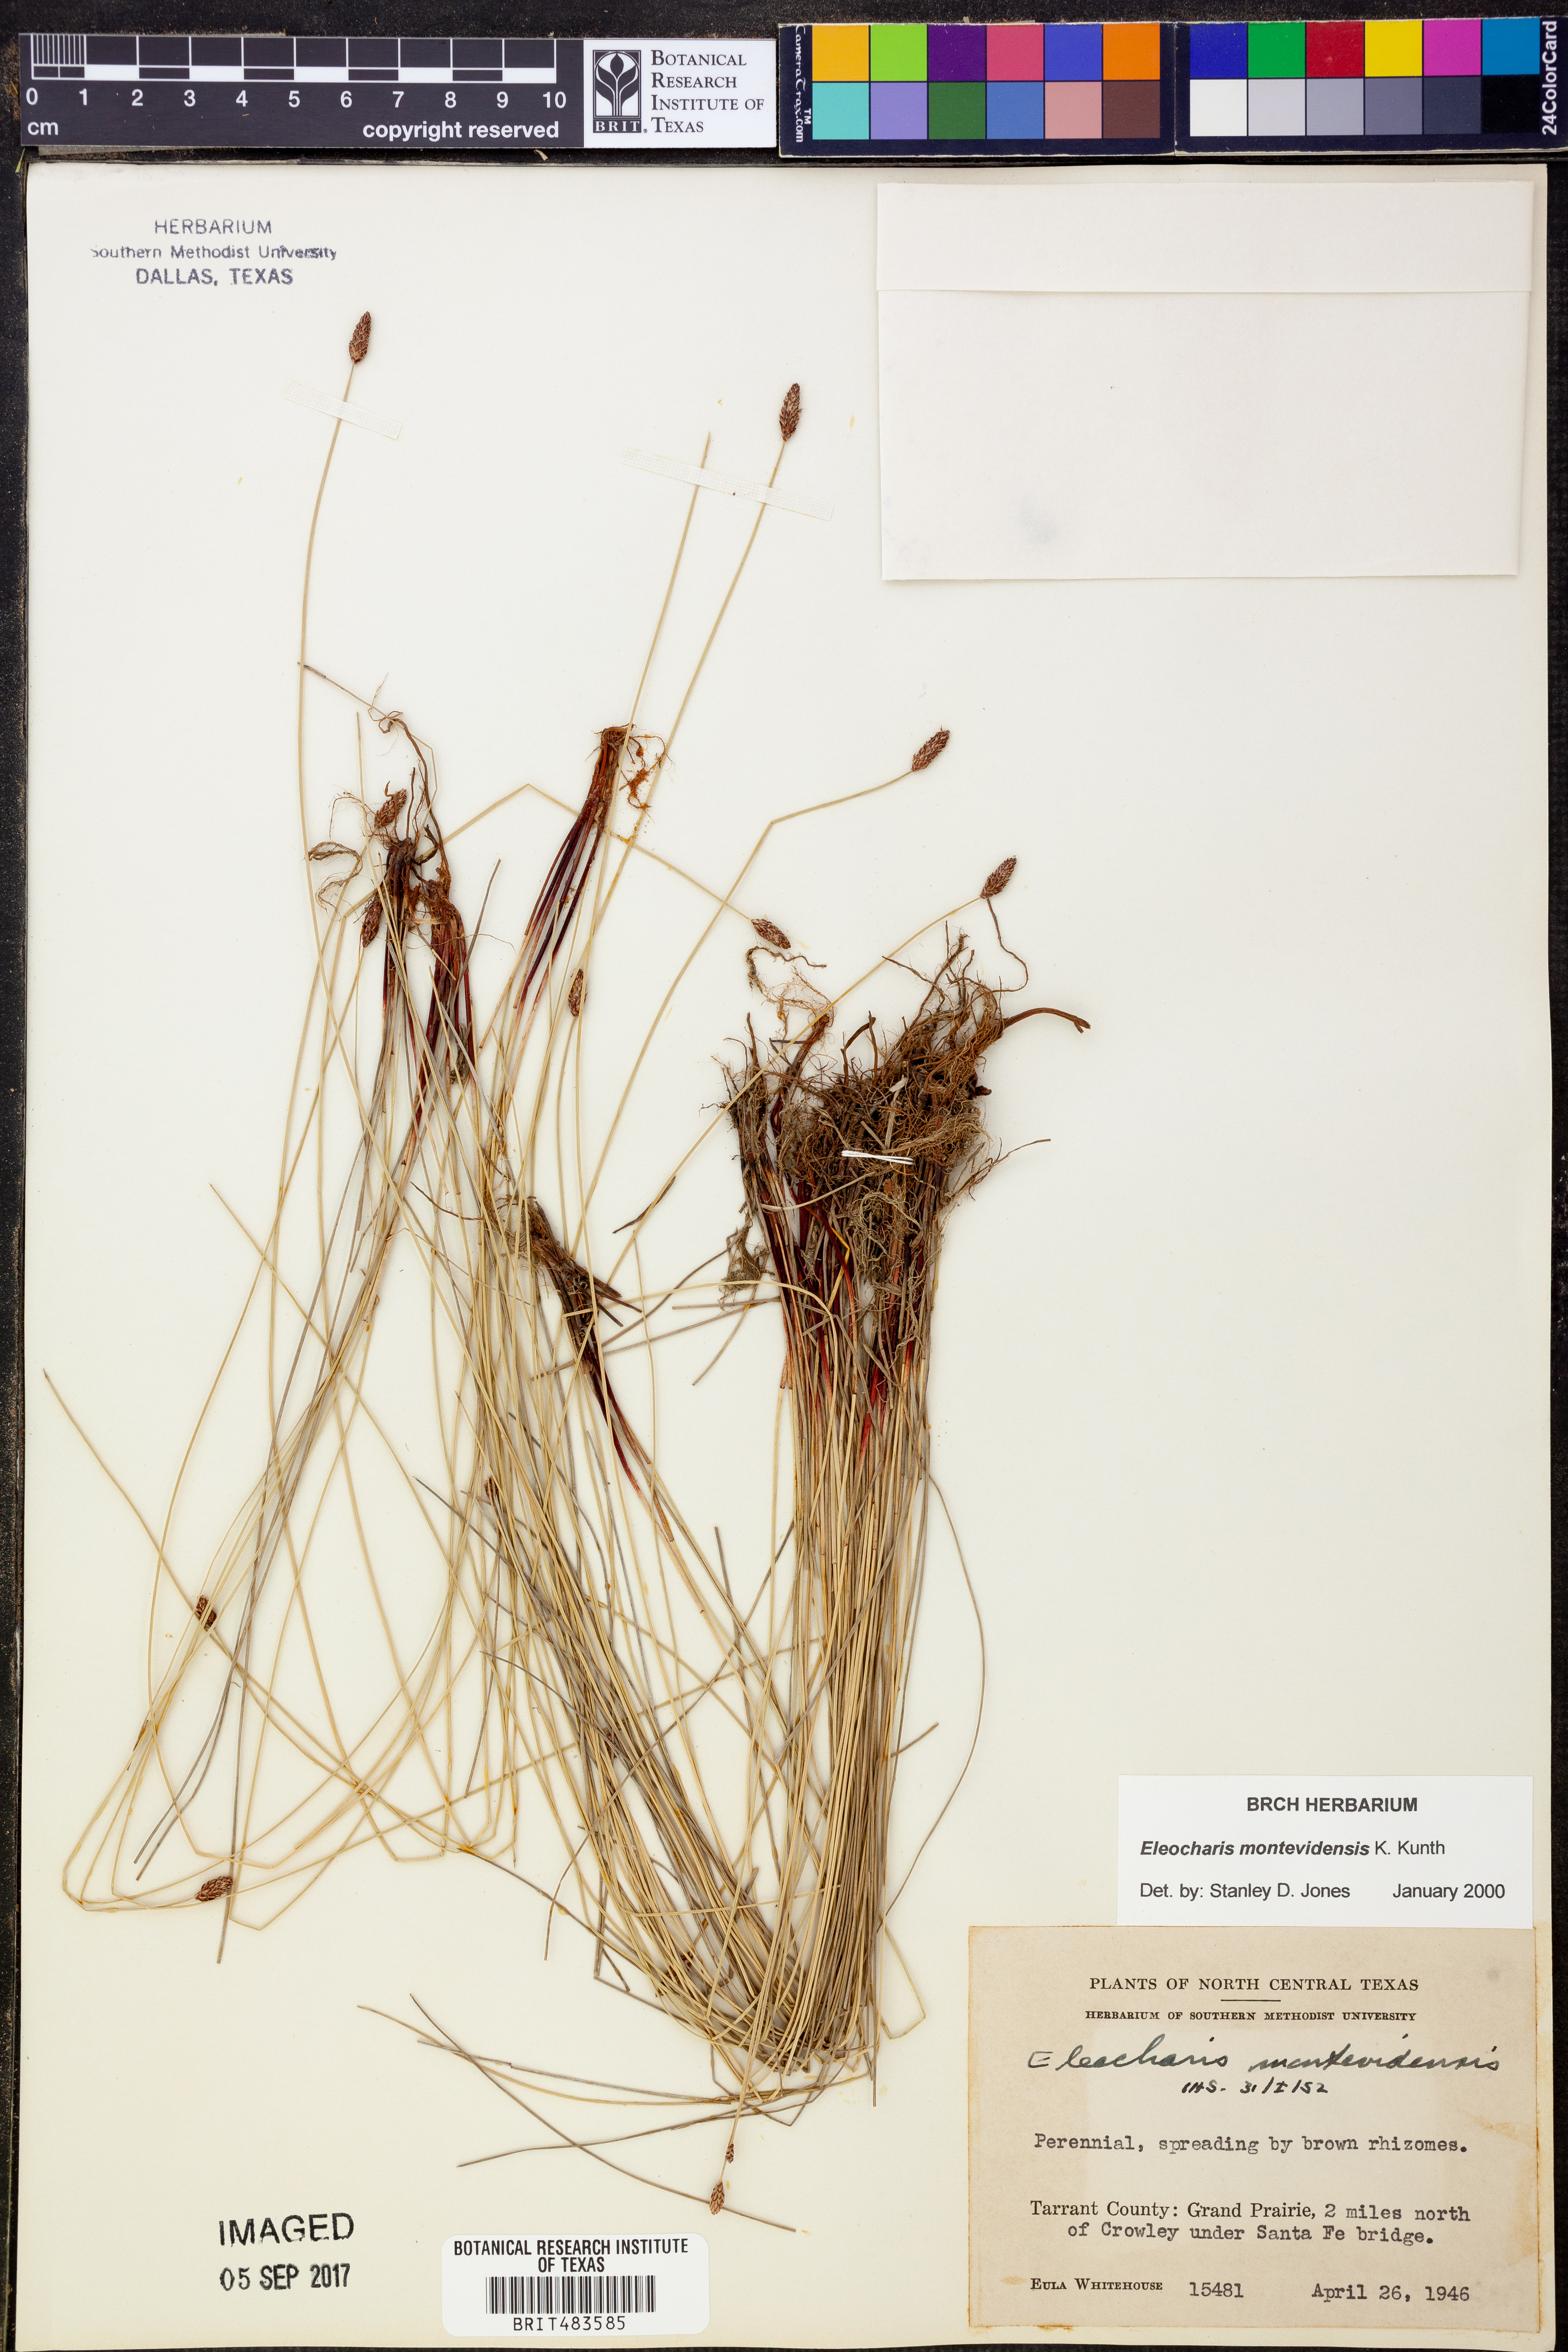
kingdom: Plantae
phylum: Tracheophyta
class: Liliopsida
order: Poales
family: Cyperaceae
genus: Eleocharis
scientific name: Eleocharis montevidensis
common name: Sand spike-rush
